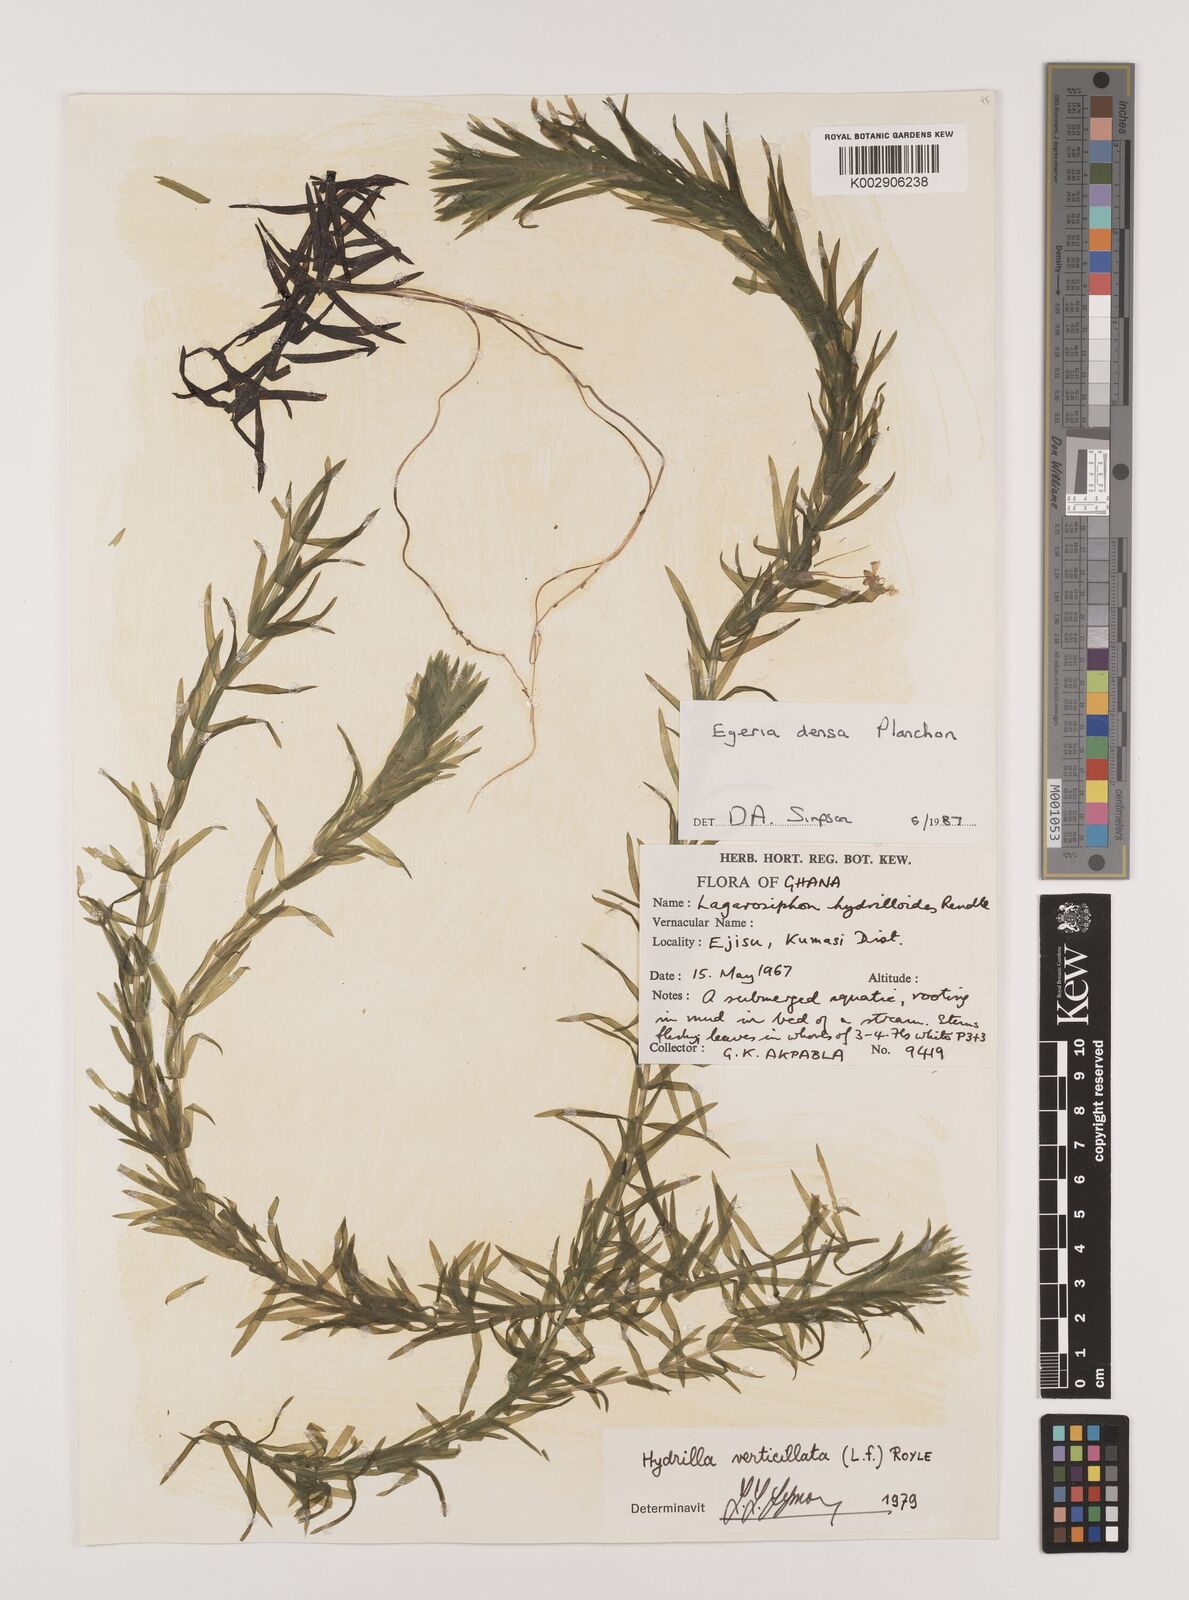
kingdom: Plantae
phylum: Tracheophyta
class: Liliopsida
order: Alismatales
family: Hydrocharitaceae
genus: Elodea
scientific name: Elodea densa
